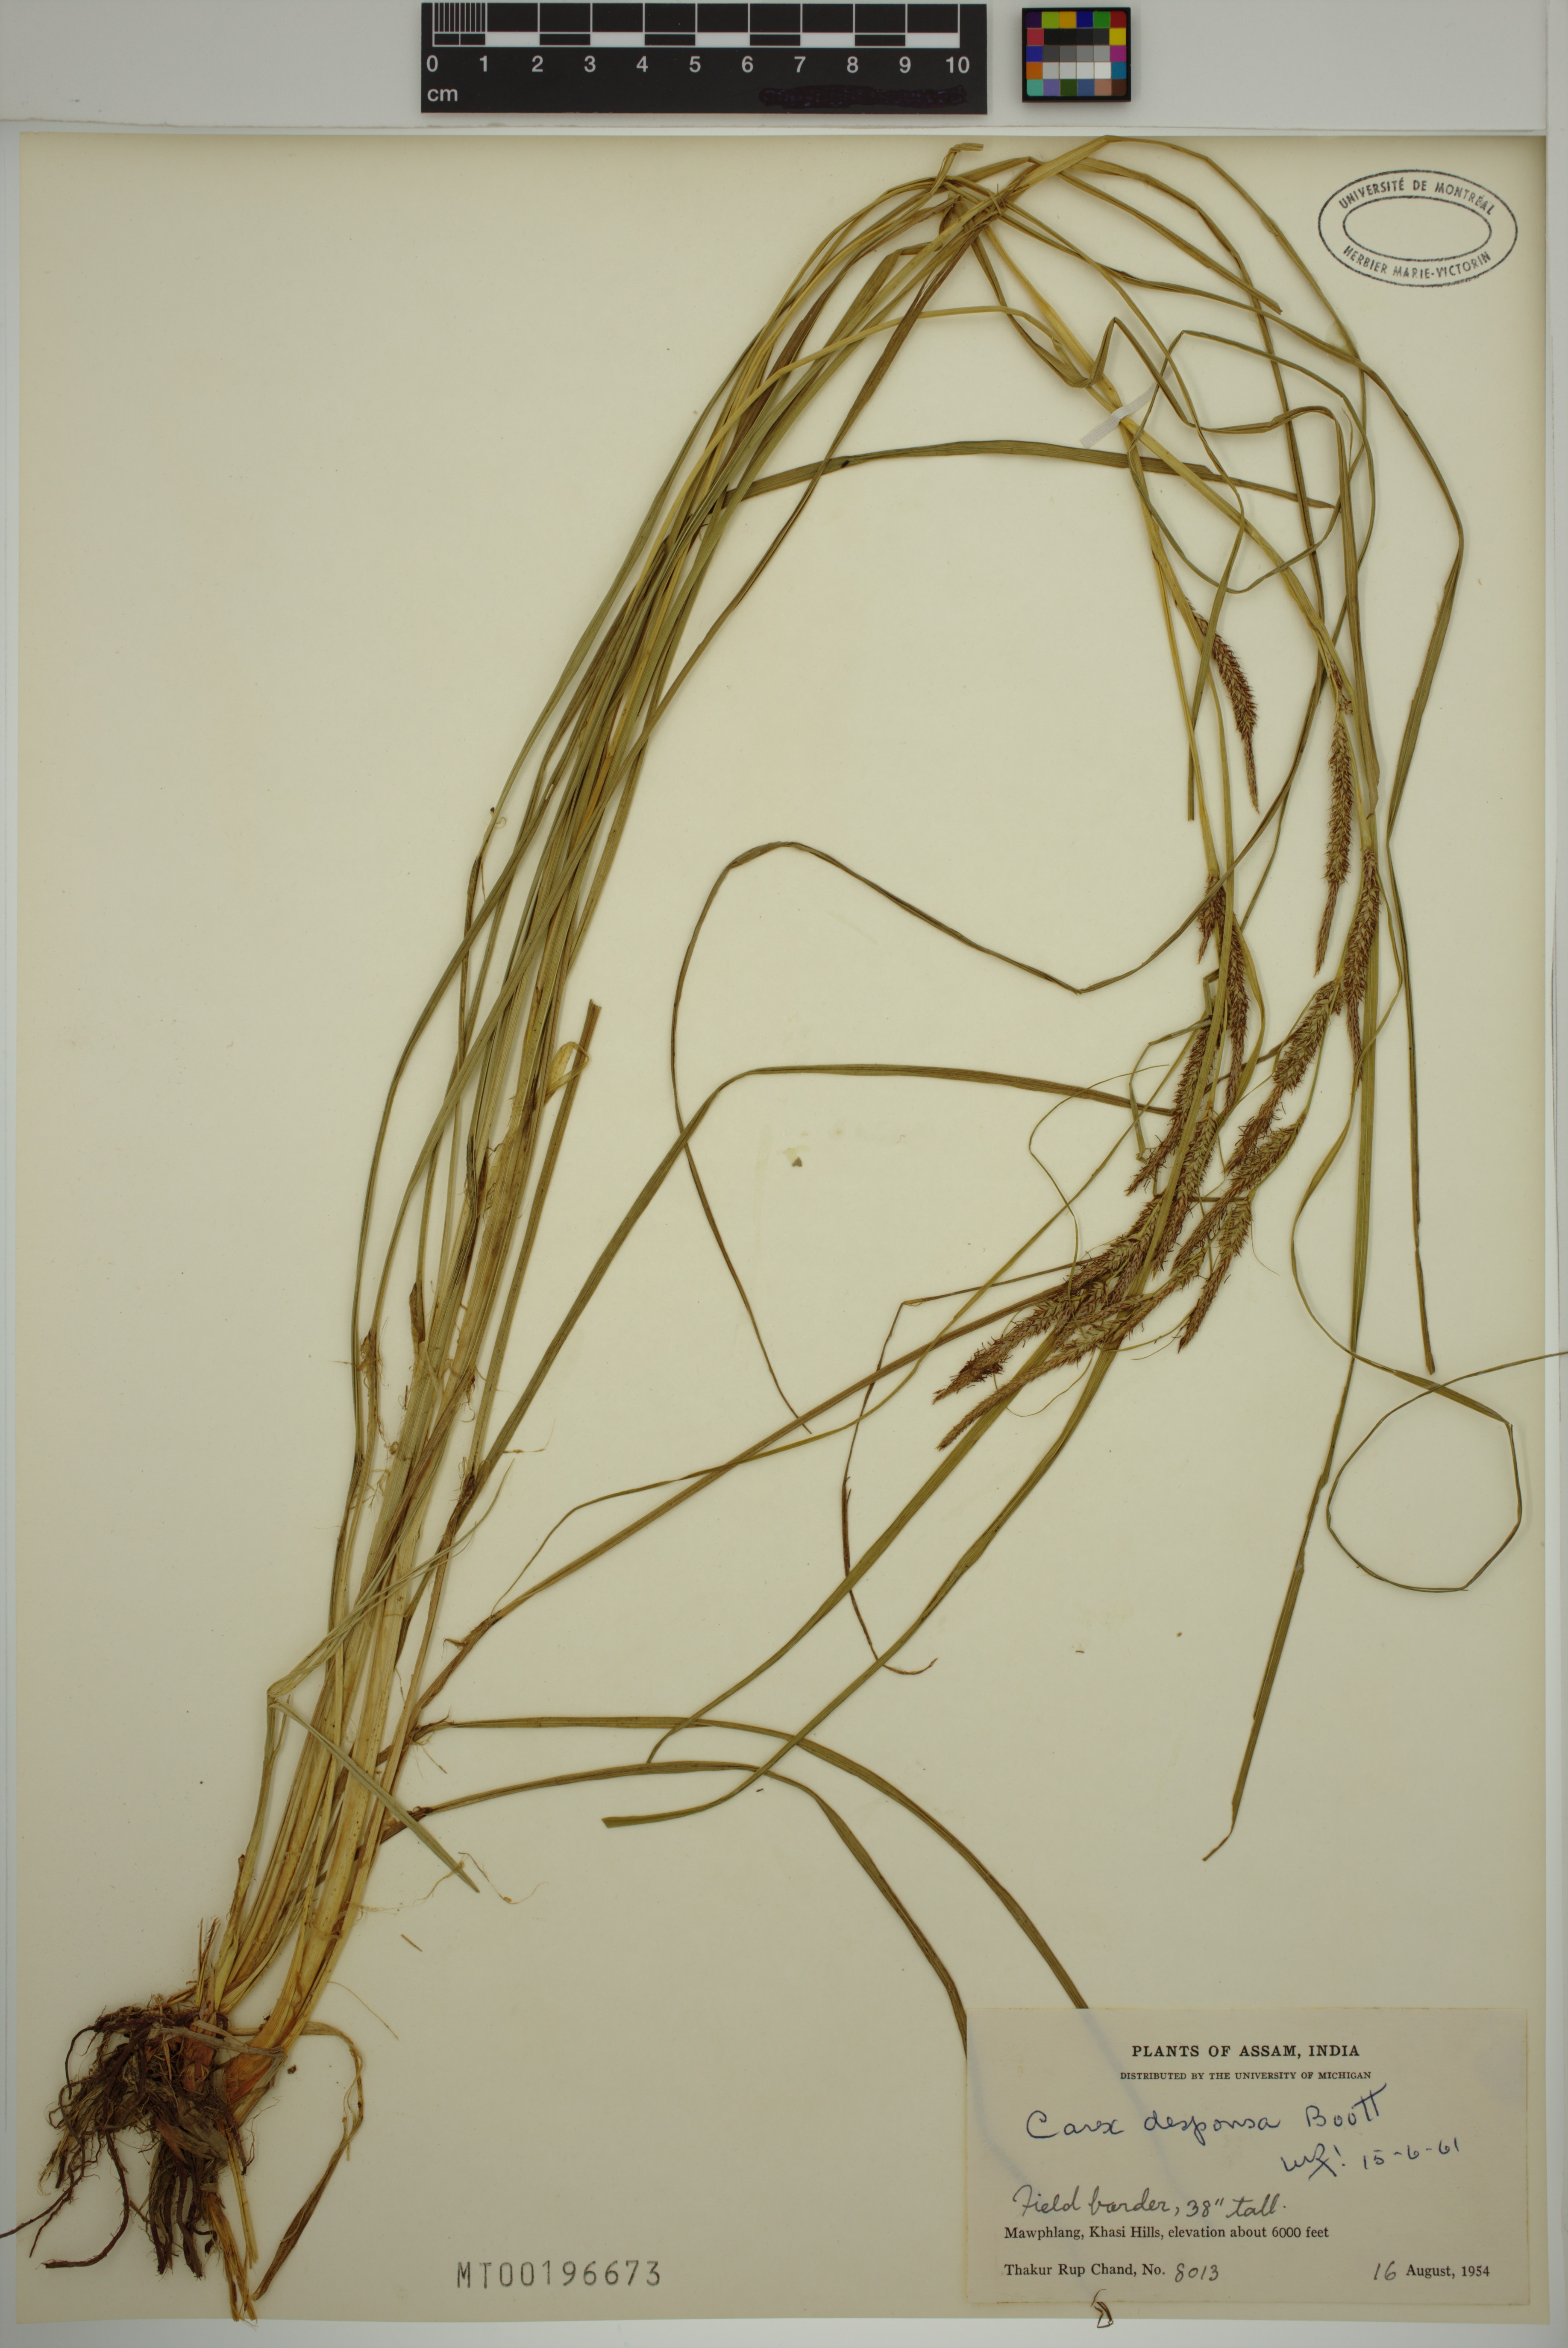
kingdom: Plantae
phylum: Tracheophyta
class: Liliopsida
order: Poales
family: Cyperaceae
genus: Carex
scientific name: Carex desponsa
